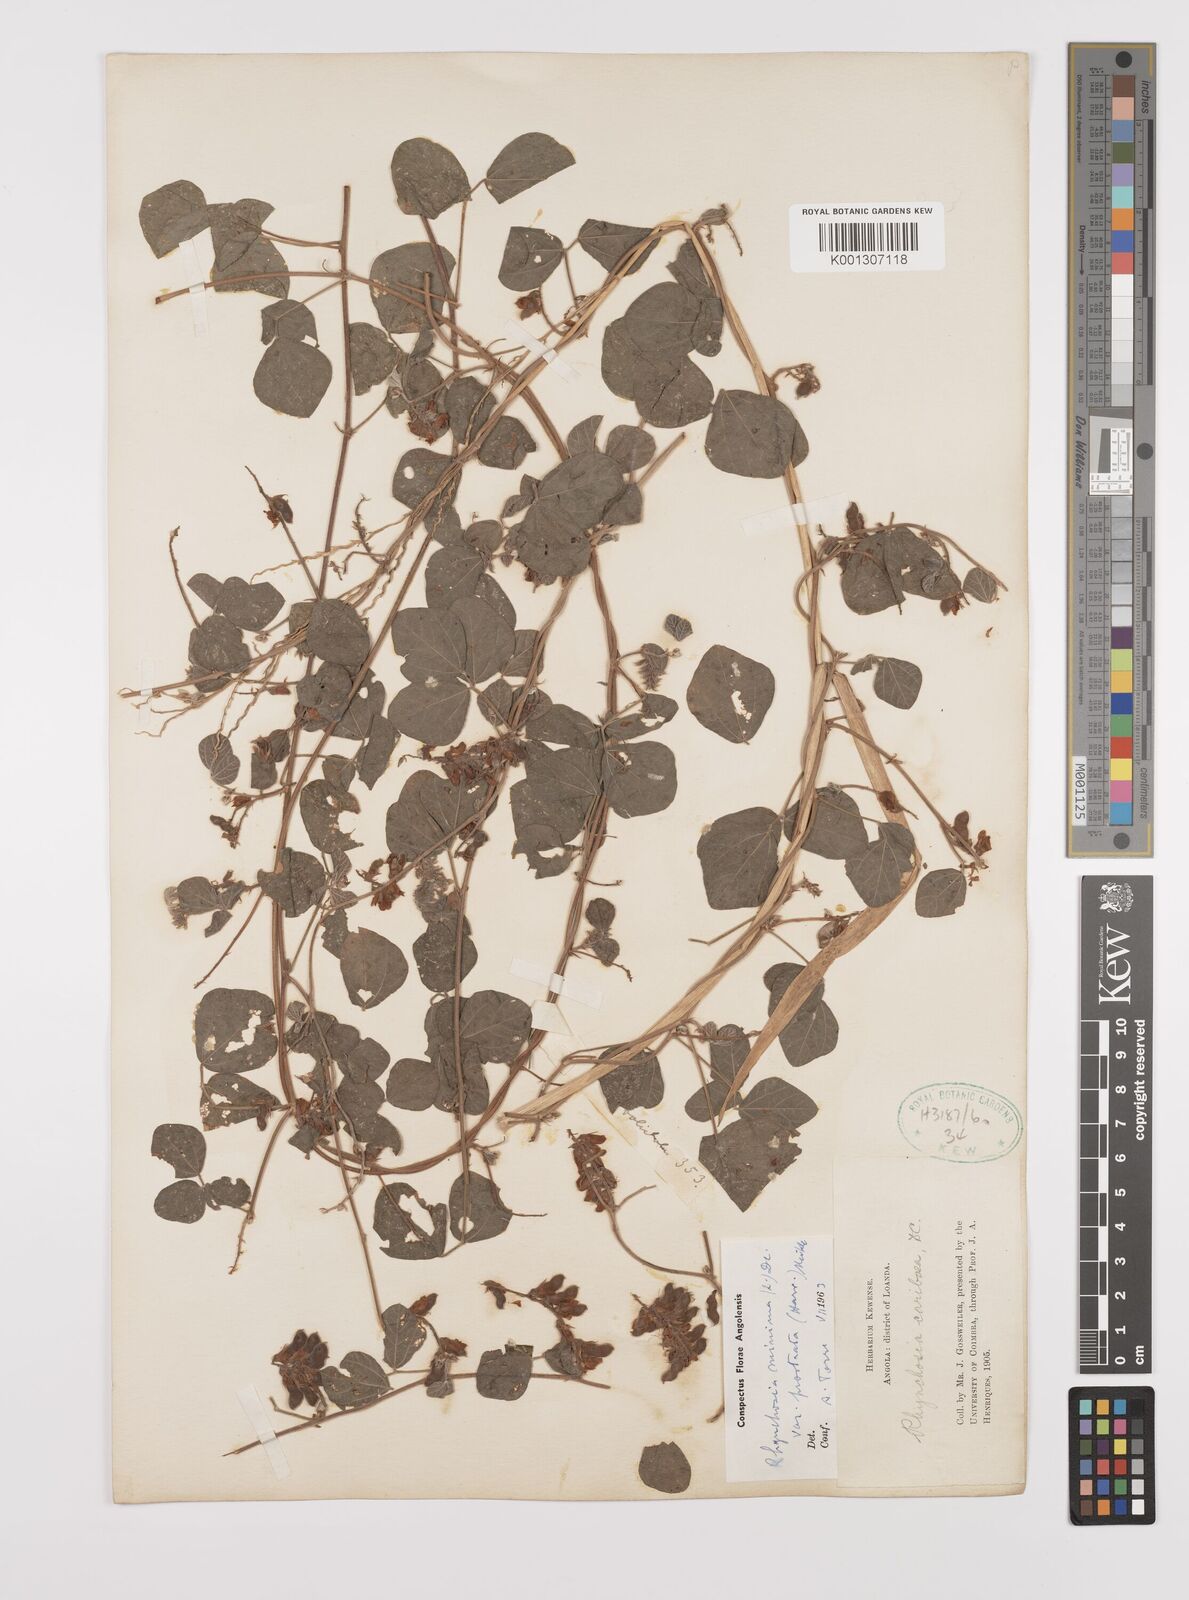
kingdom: Plantae
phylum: Tracheophyta
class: Magnoliopsida
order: Fabales
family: Fabaceae
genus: Rhynchosia
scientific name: Rhynchosia minima
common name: Least snoutbean
